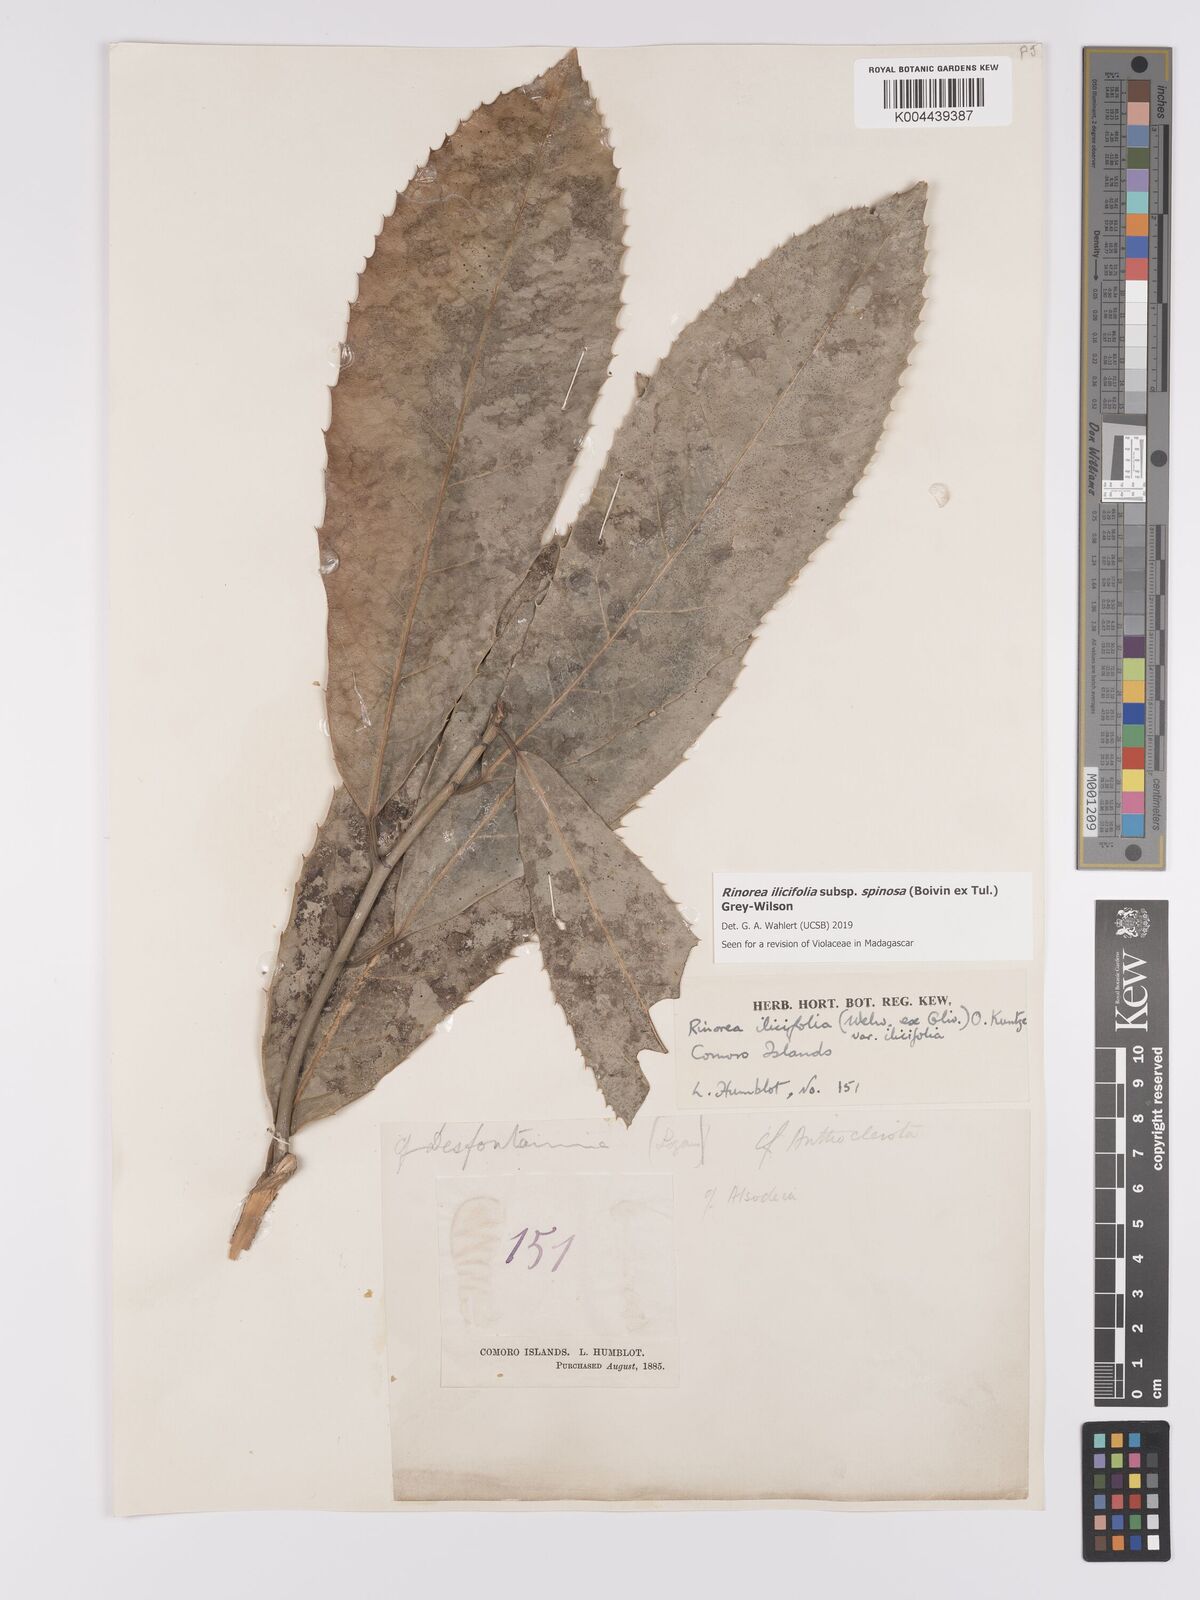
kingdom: Plantae
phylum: Tracheophyta
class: Magnoliopsida
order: Malpighiales
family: Violaceae
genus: Rinorea
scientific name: Rinorea spinosa
